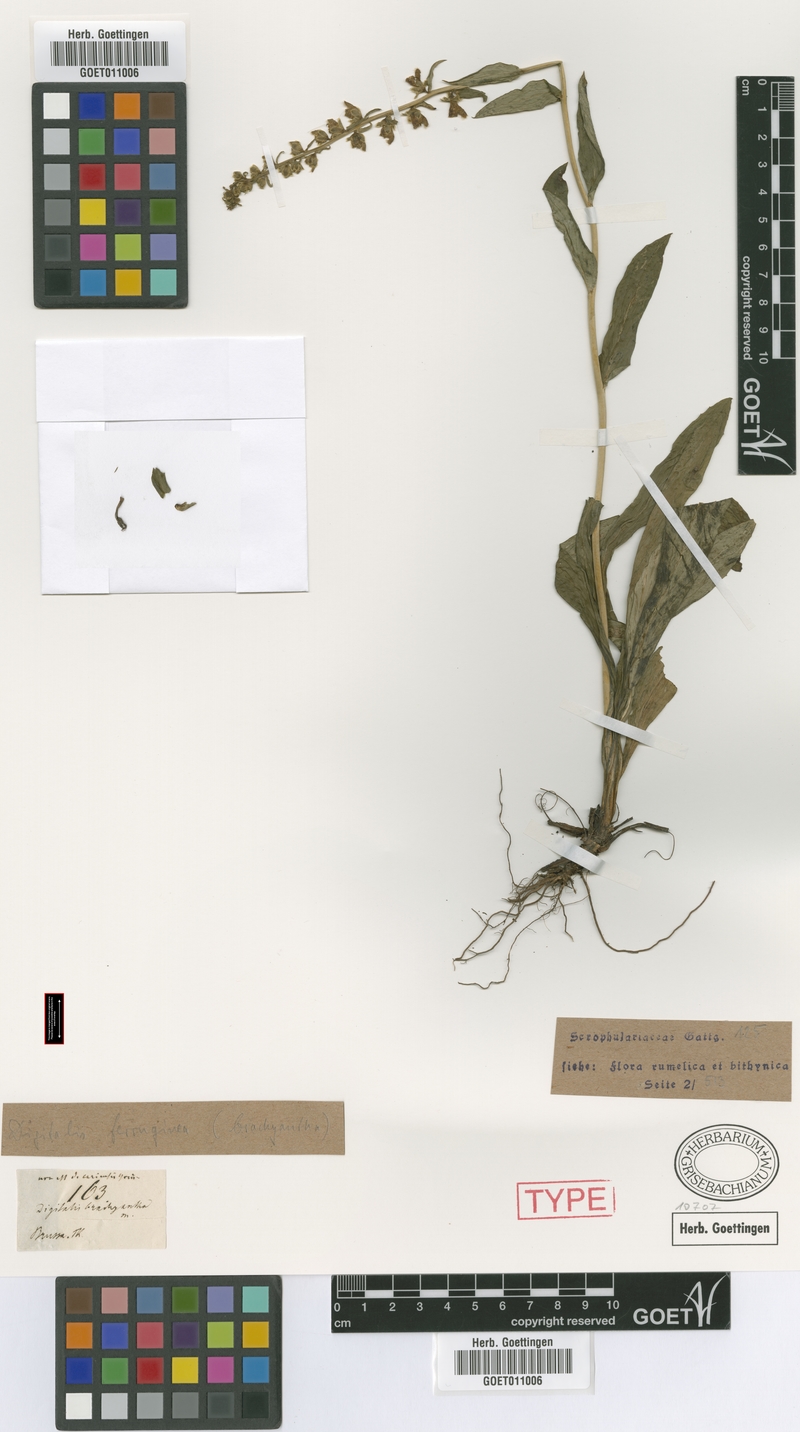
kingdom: Plantae
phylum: Tracheophyta
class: Magnoliopsida
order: Lamiales
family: Plantaginaceae
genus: Digitalis
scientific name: Digitalis ferruginea
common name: Rusty foxglove
